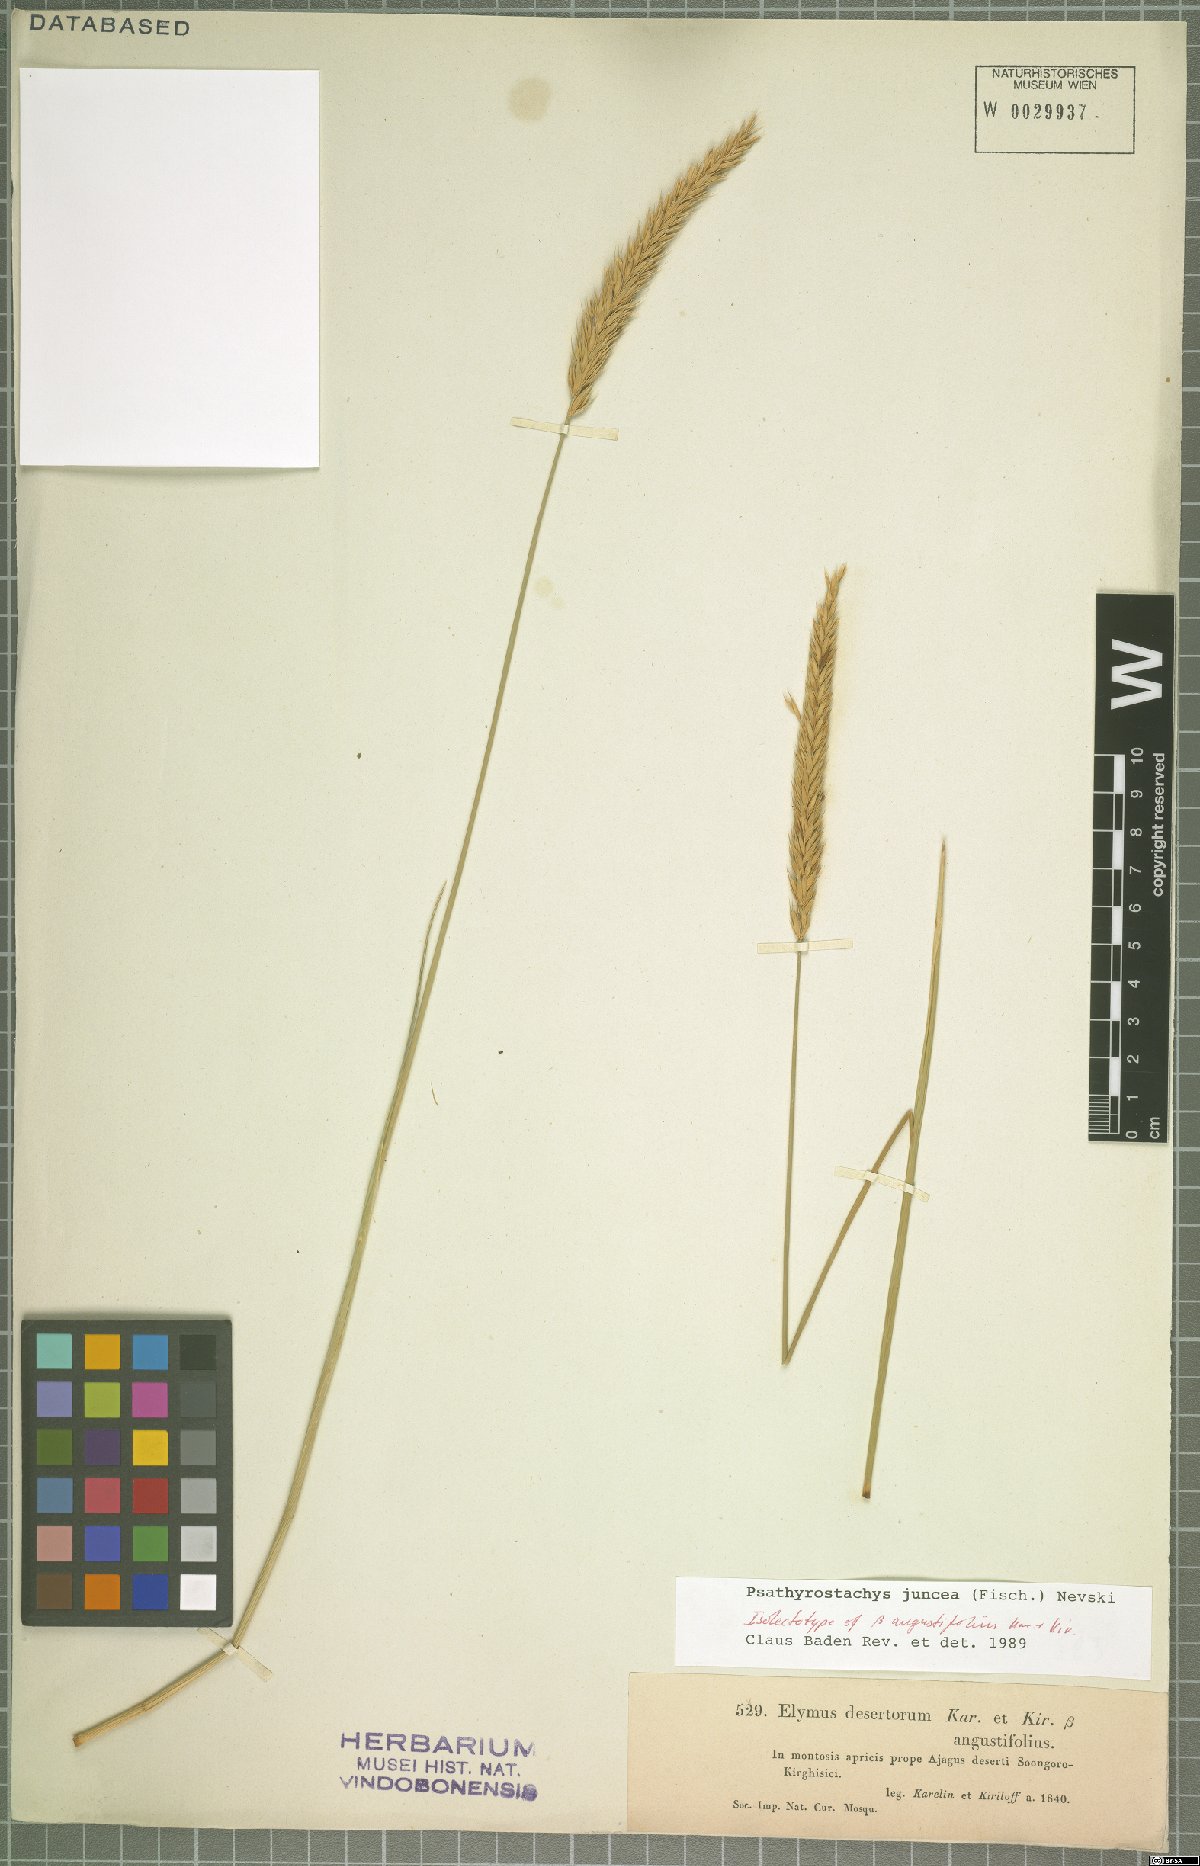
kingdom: Plantae
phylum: Tracheophyta
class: Liliopsida
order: Poales
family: Poaceae
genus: Psathyrostachys
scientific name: Psathyrostachys juncea
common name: Russian wildrye
